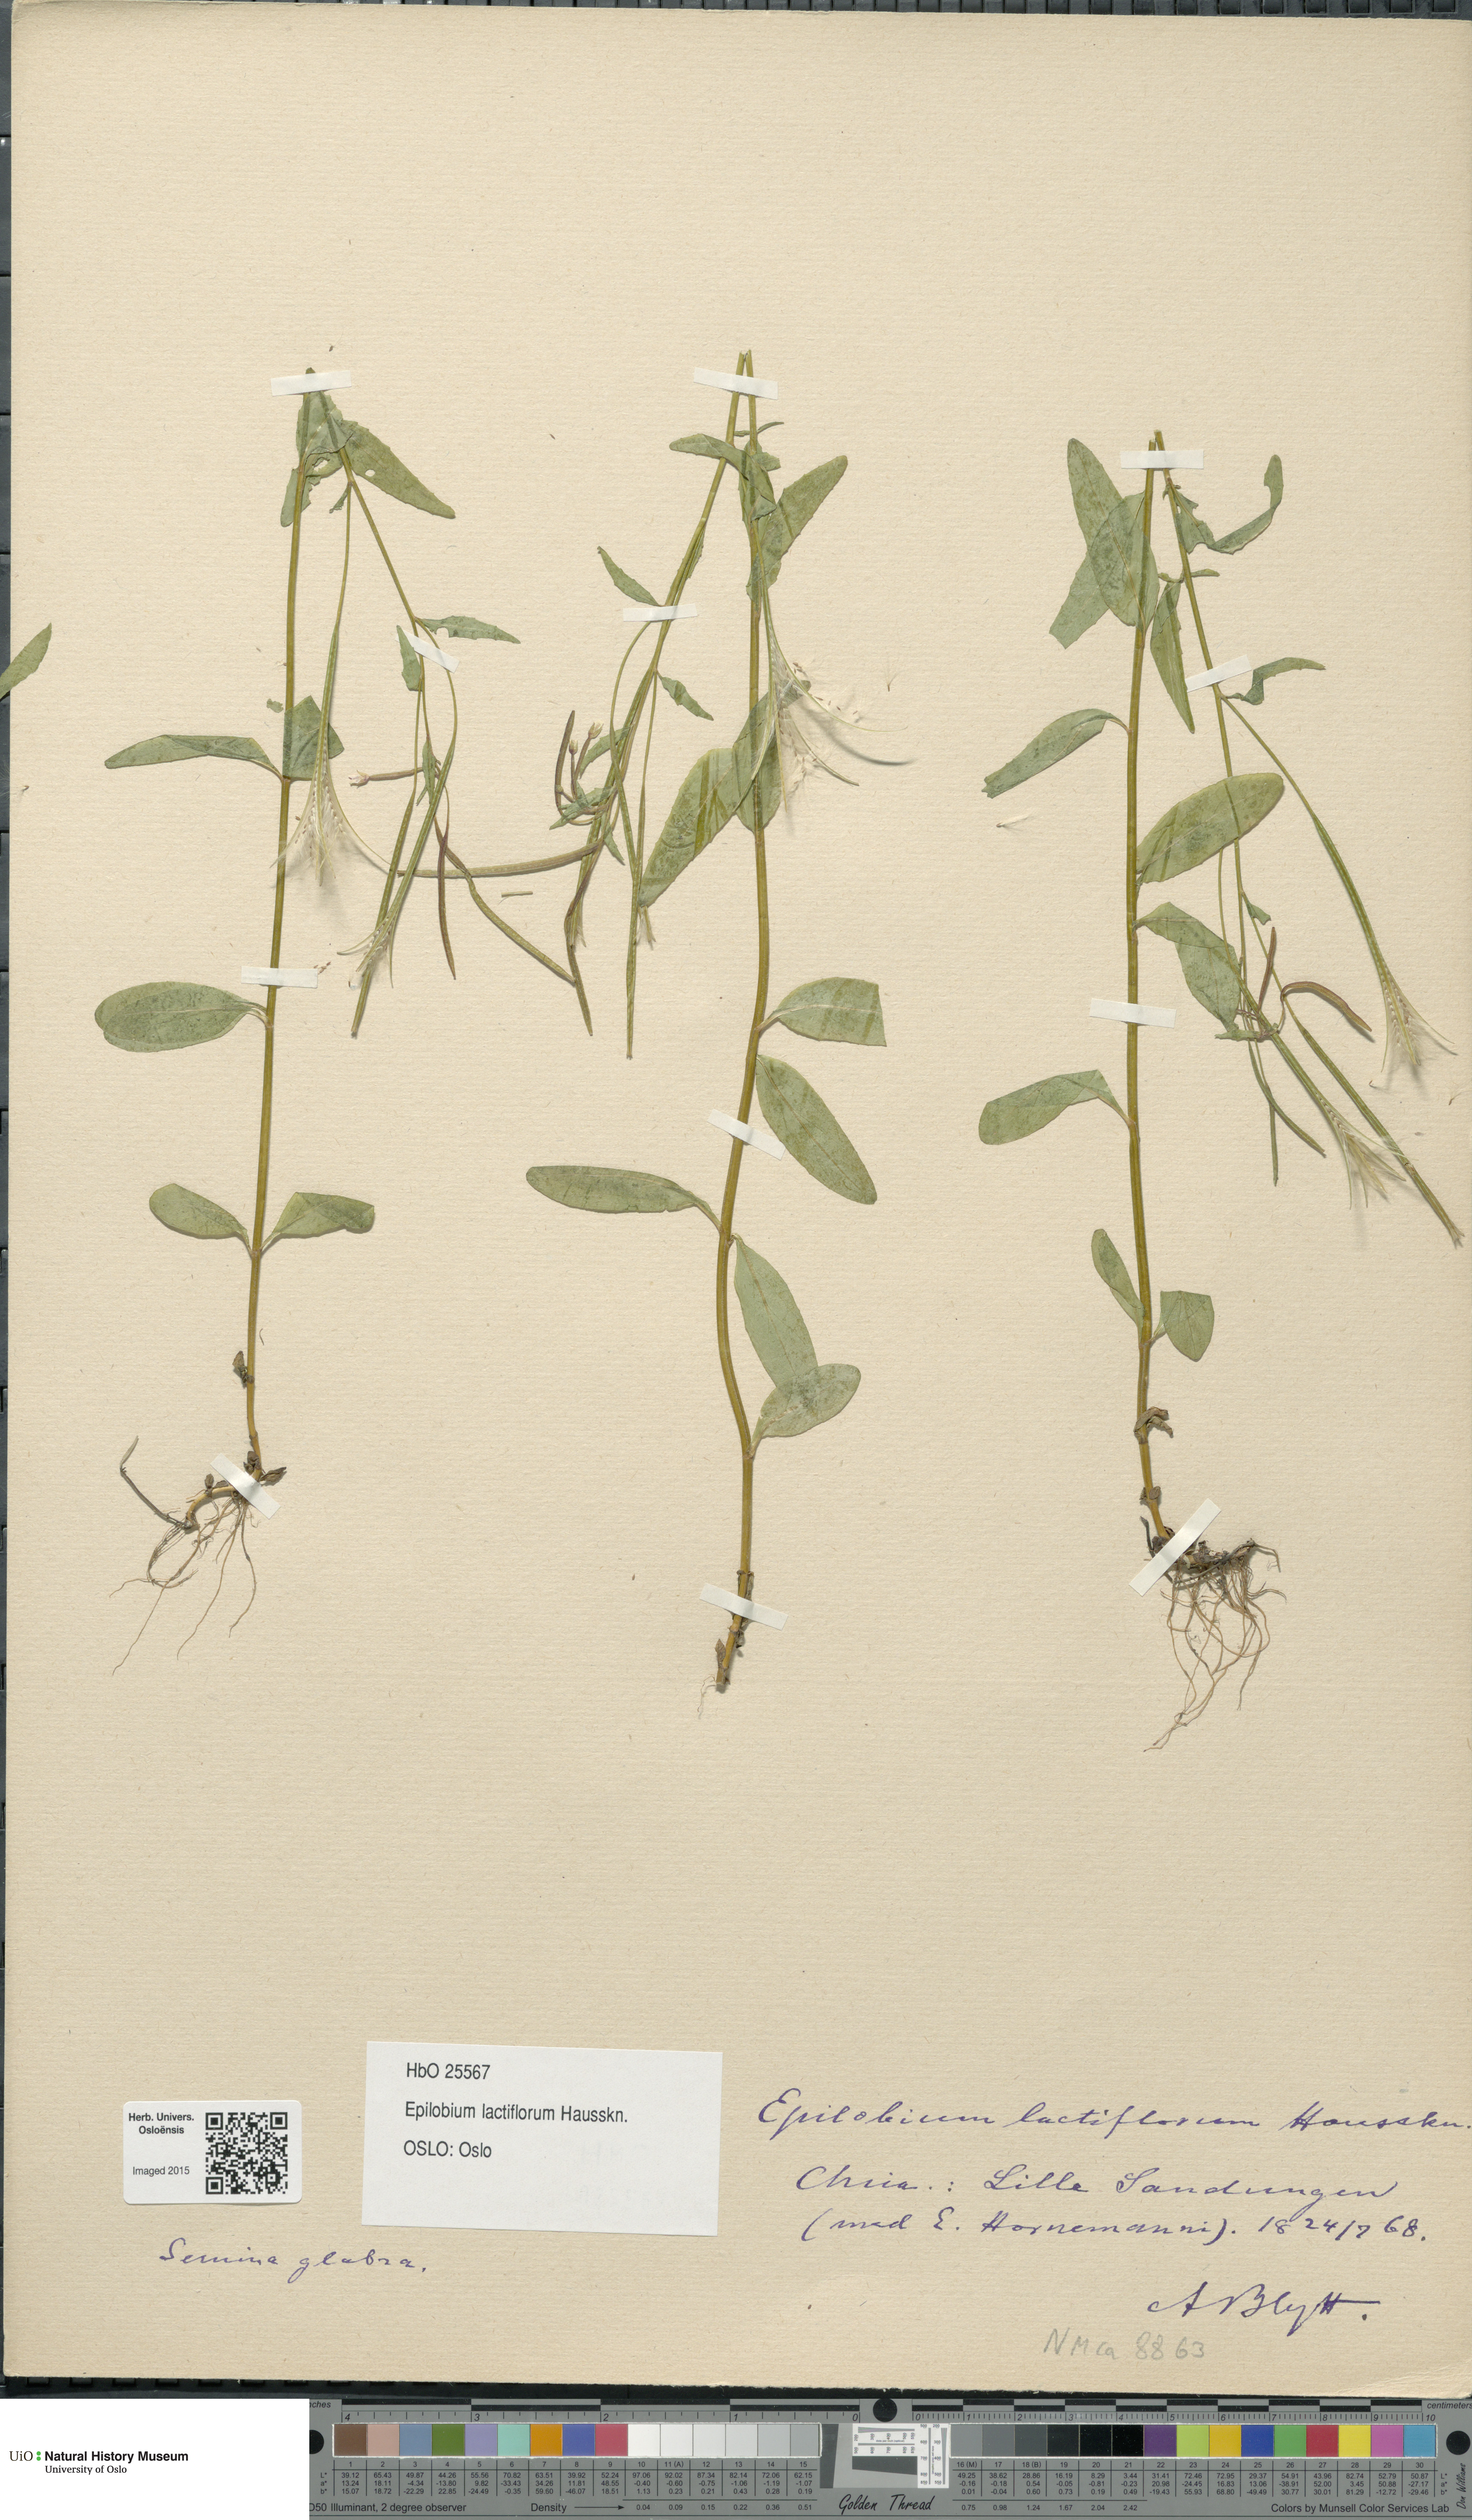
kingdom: Plantae
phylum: Tracheophyta
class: Magnoliopsida
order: Myrtales
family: Onagraceae
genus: Epilobium
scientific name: Epilobium lactiflorum
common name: Milkflower willowherb
